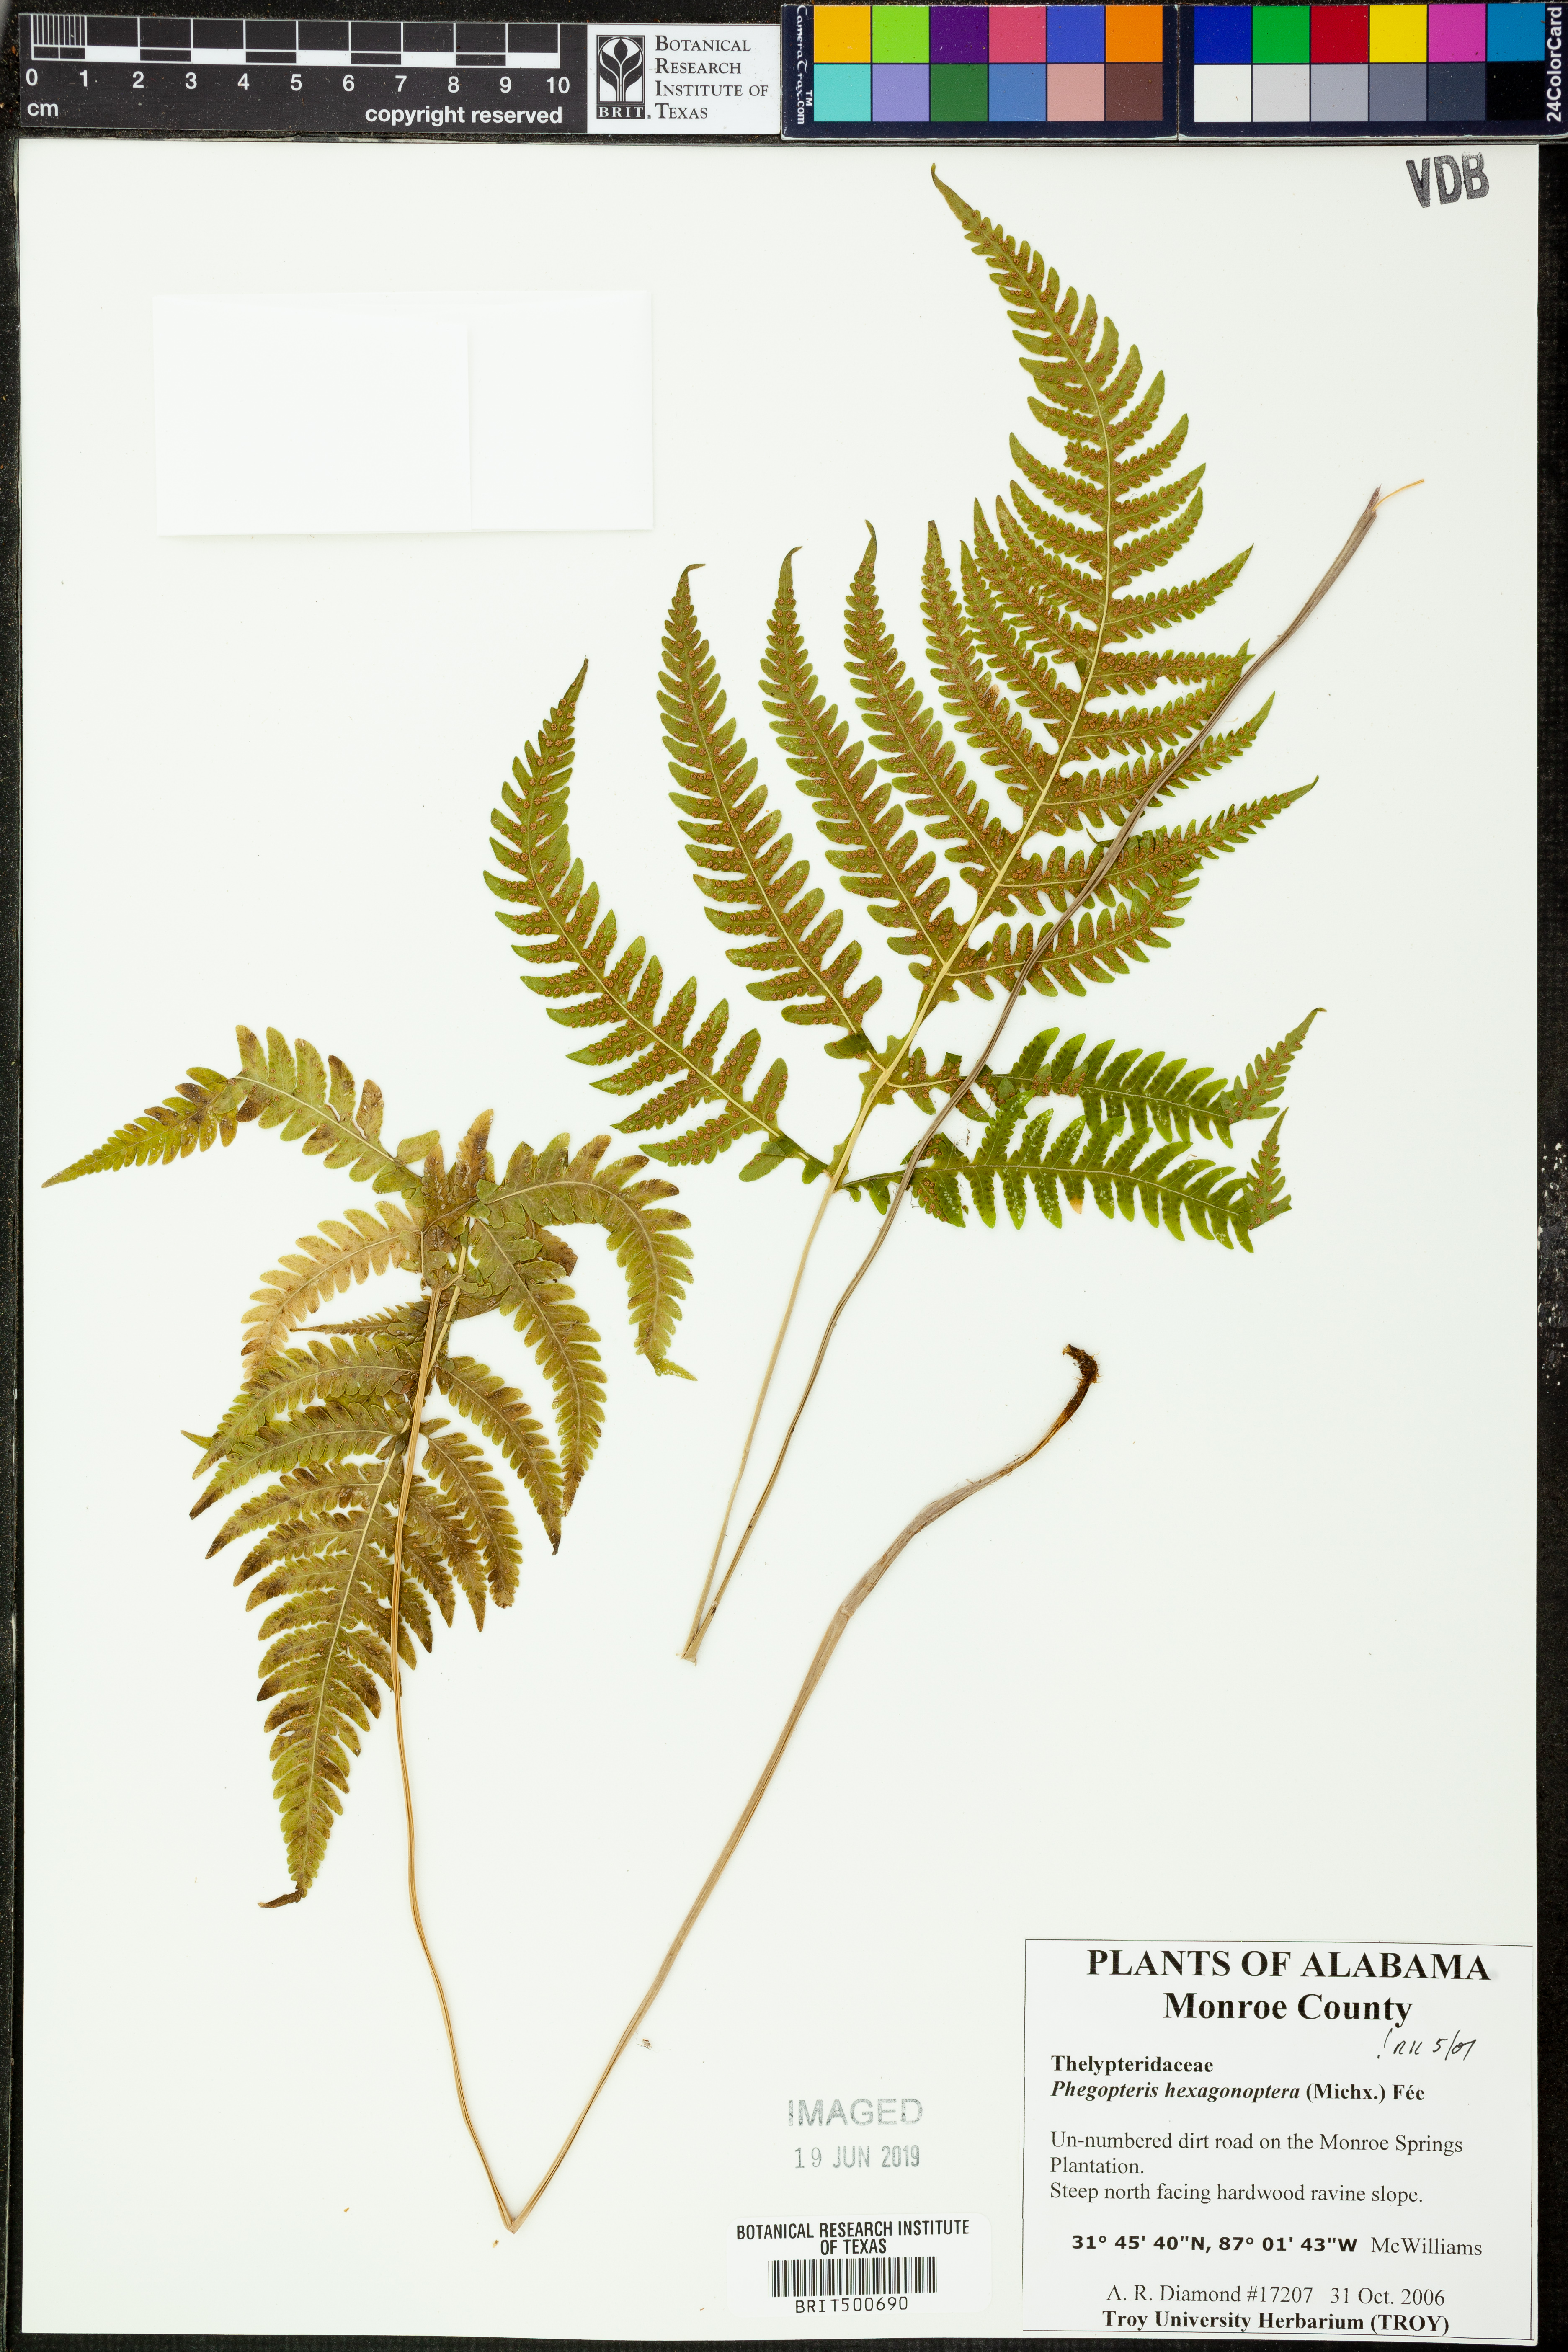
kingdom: Plantae
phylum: Tracheophyta
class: Polypodiopsida
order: Polypodiales
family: Thelypteridaceae
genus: Phegopteris
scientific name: Phegopteris hexagonoptera
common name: Broad beech fern
